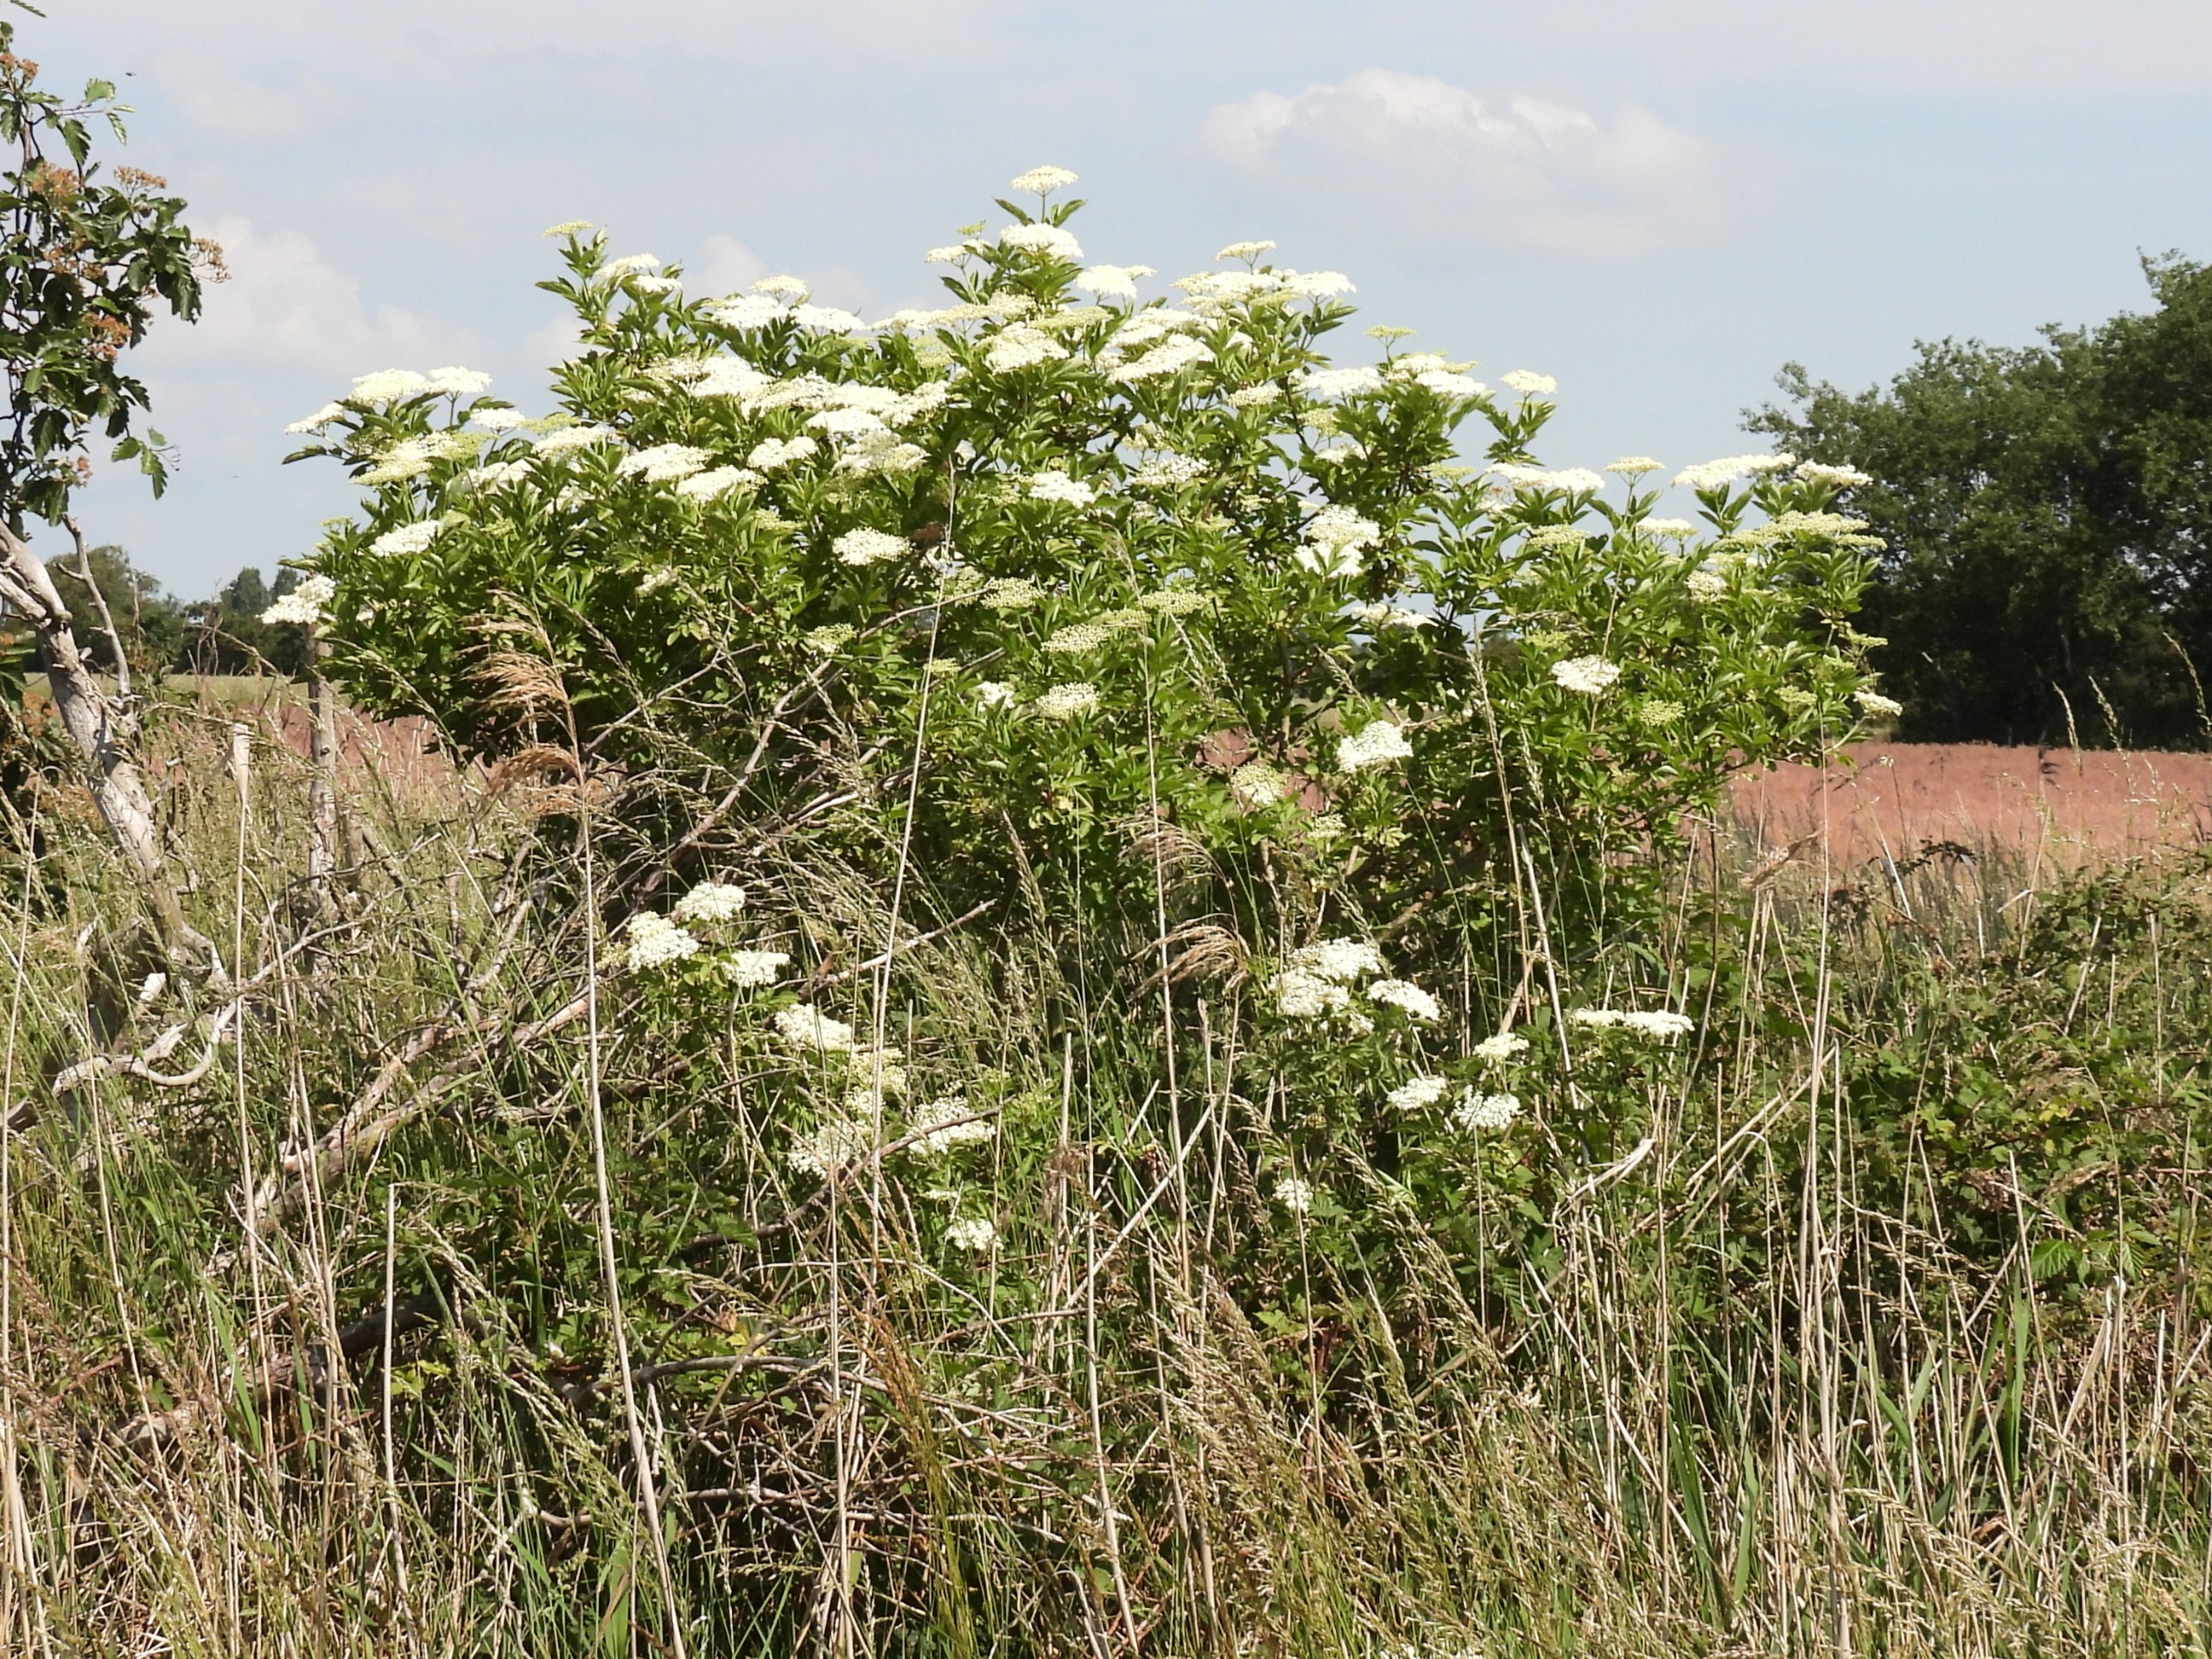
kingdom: Plantae
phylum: Tracheophyta
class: Magnoliopsida
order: Dipsacales
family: Viburnaceae
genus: Sambucus
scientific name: Sambucus nigra
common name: Almindelig hyld
